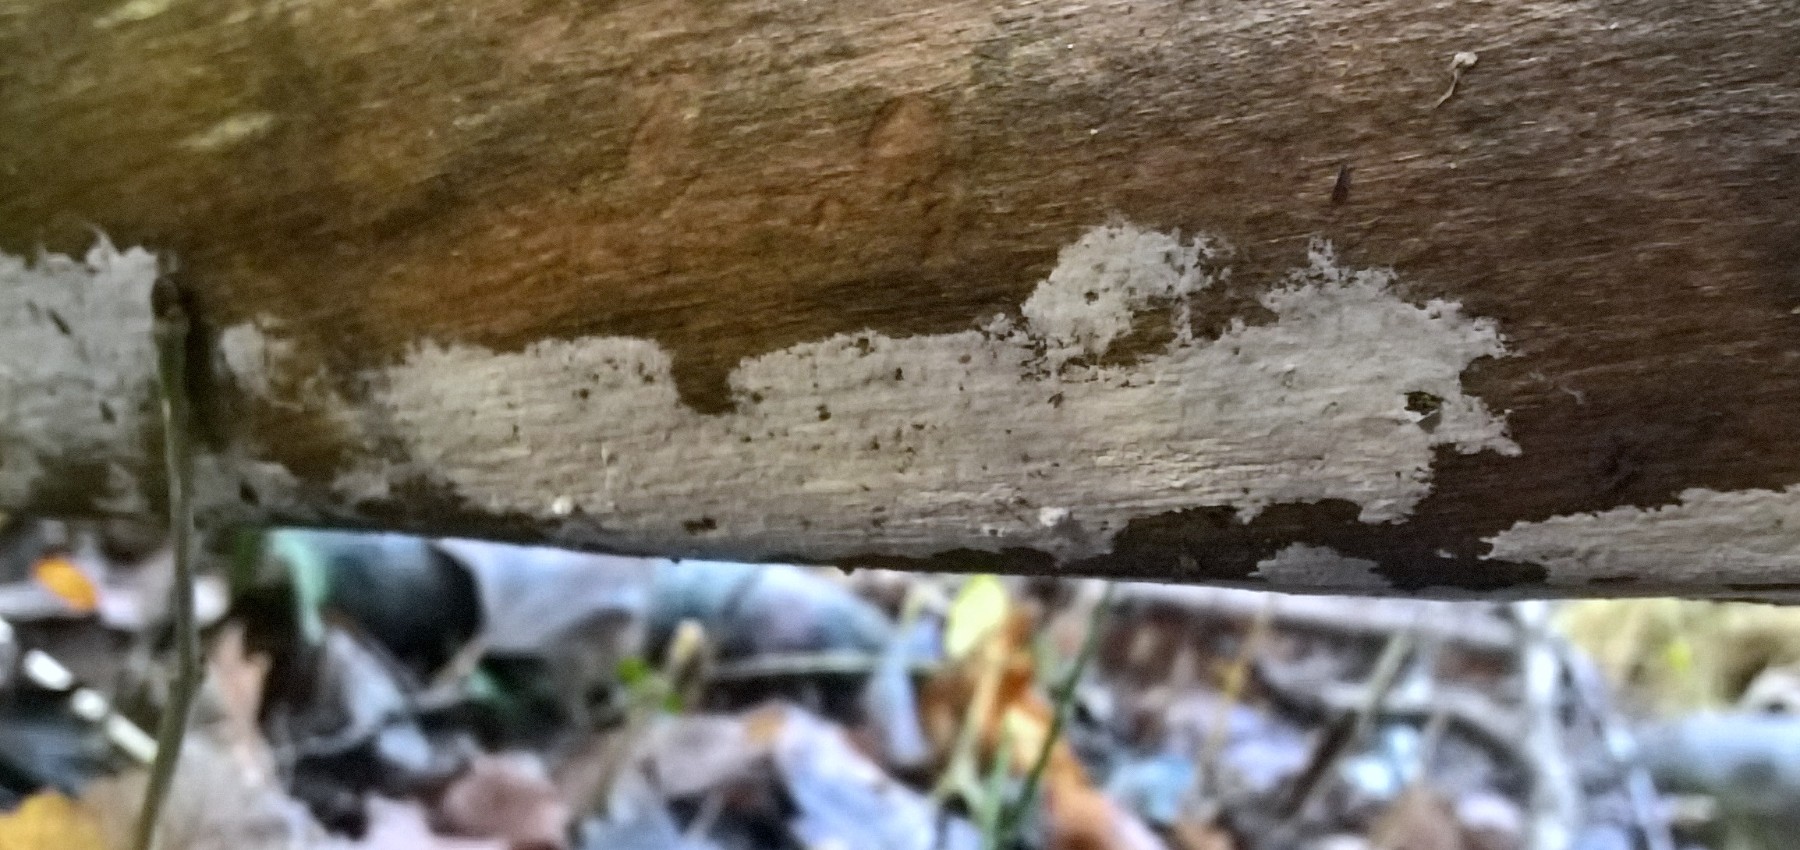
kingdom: Fungi
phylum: Basidiomycota
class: Agaricomycetes
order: Corticiales
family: Corticiaceae
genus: Lyomyces
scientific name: Lyomyces sambuci
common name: almindelig hyldehinde
